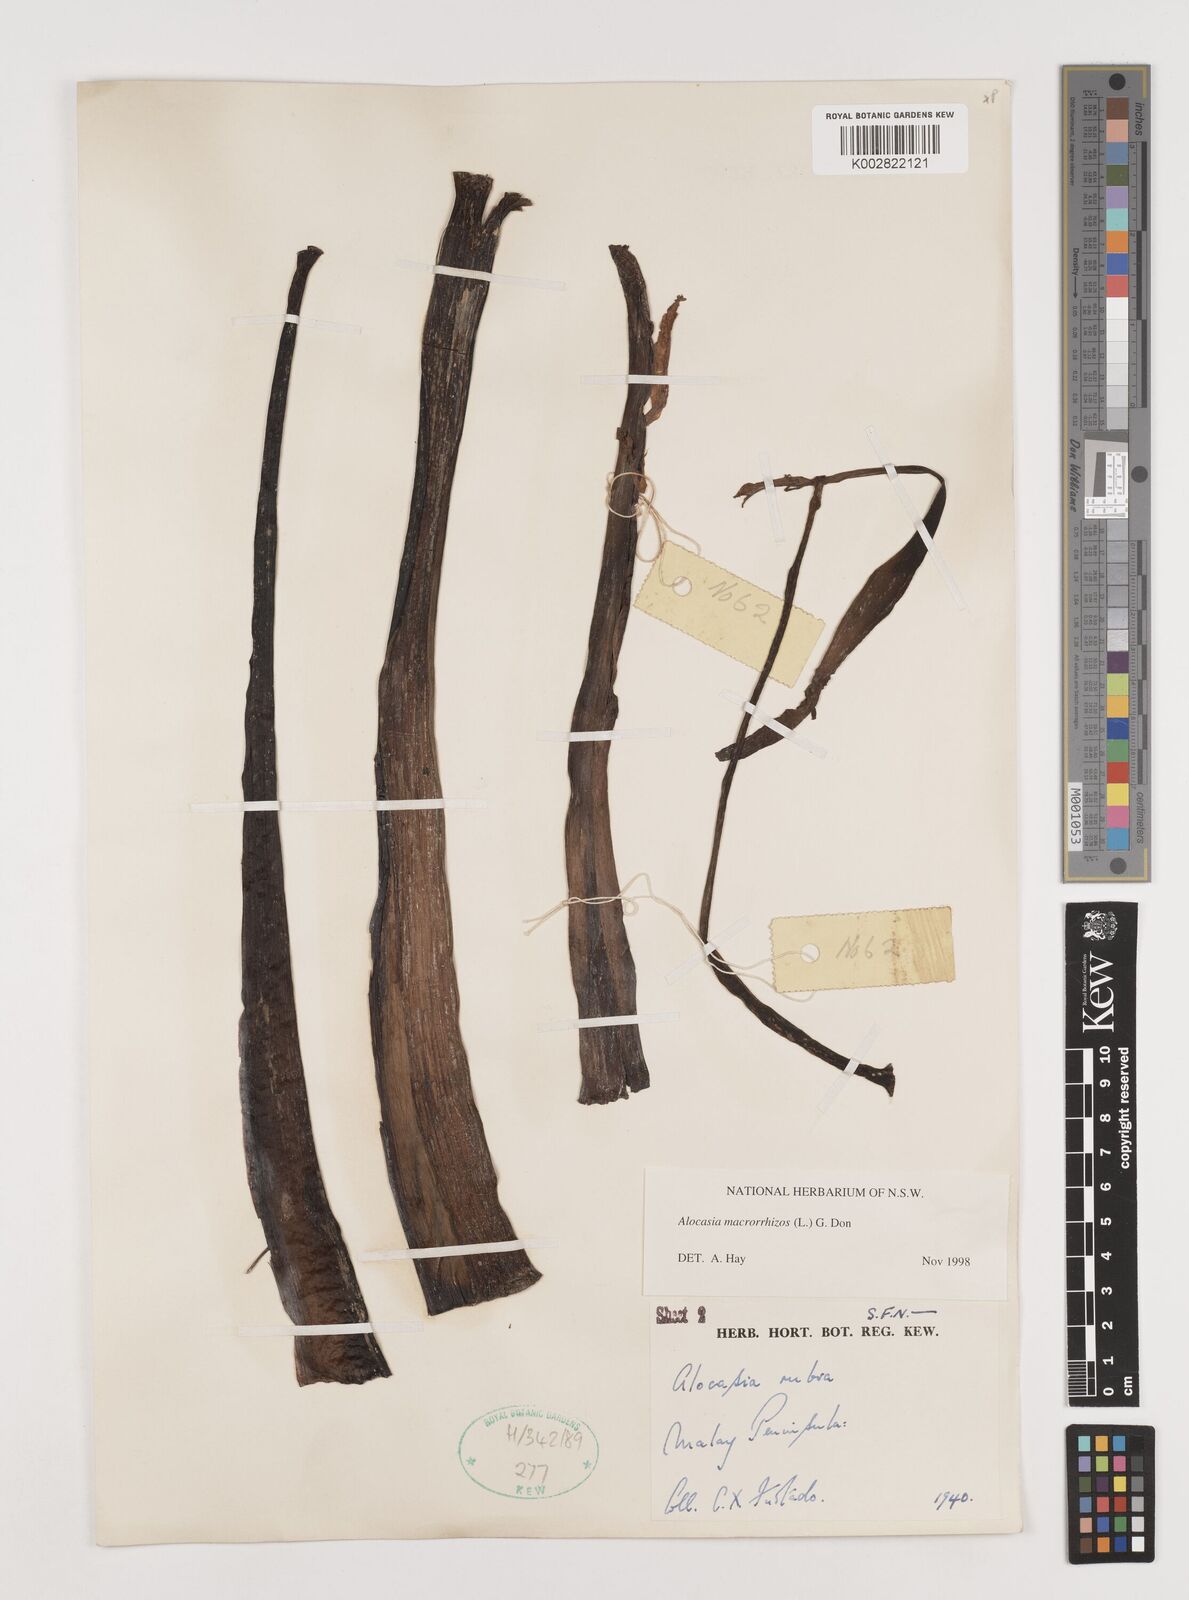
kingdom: Plantae
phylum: Tracheophyta
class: Liliopsida
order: Alismatales
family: Araceae
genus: Alocasia
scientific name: Alocasia macrorrhizos
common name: Giant taro
